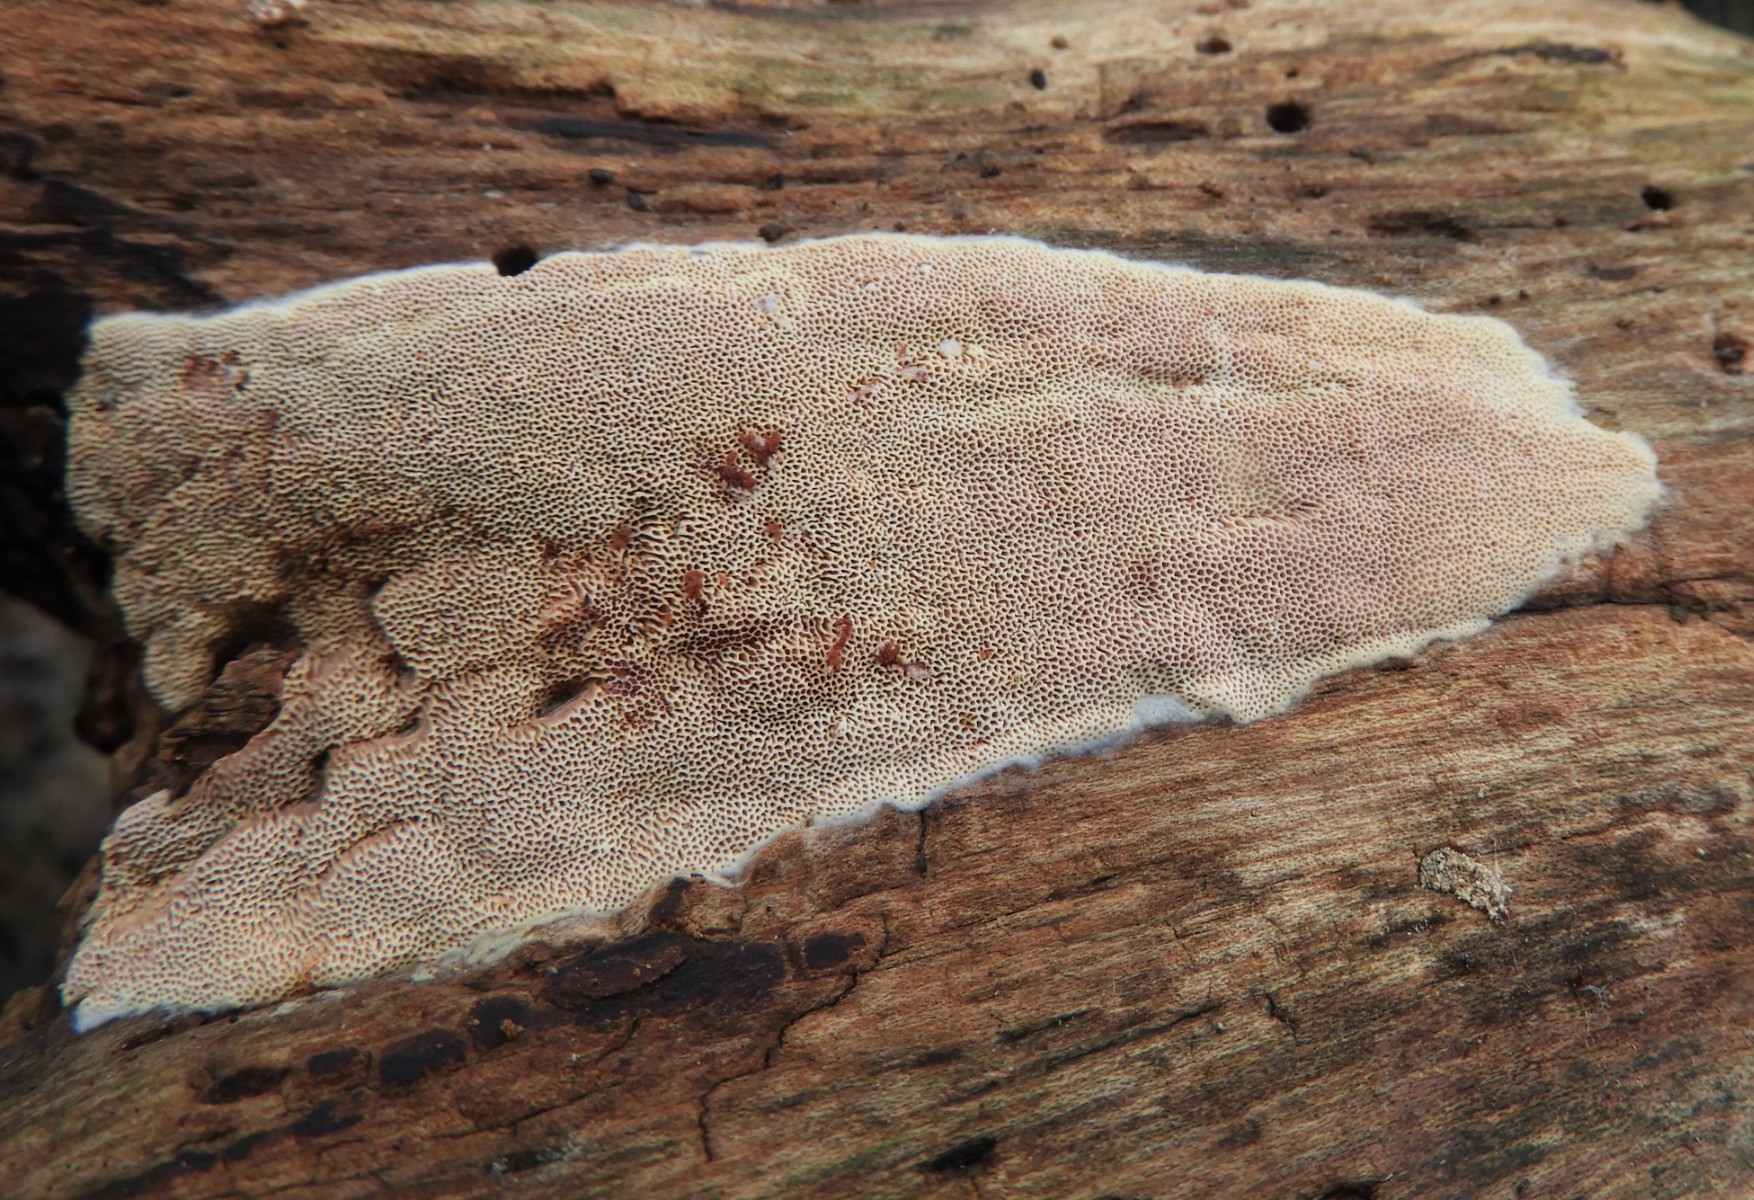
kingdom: Fungi
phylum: Basidiomycota
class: Agaricomycetes
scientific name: Agaricomycetes
